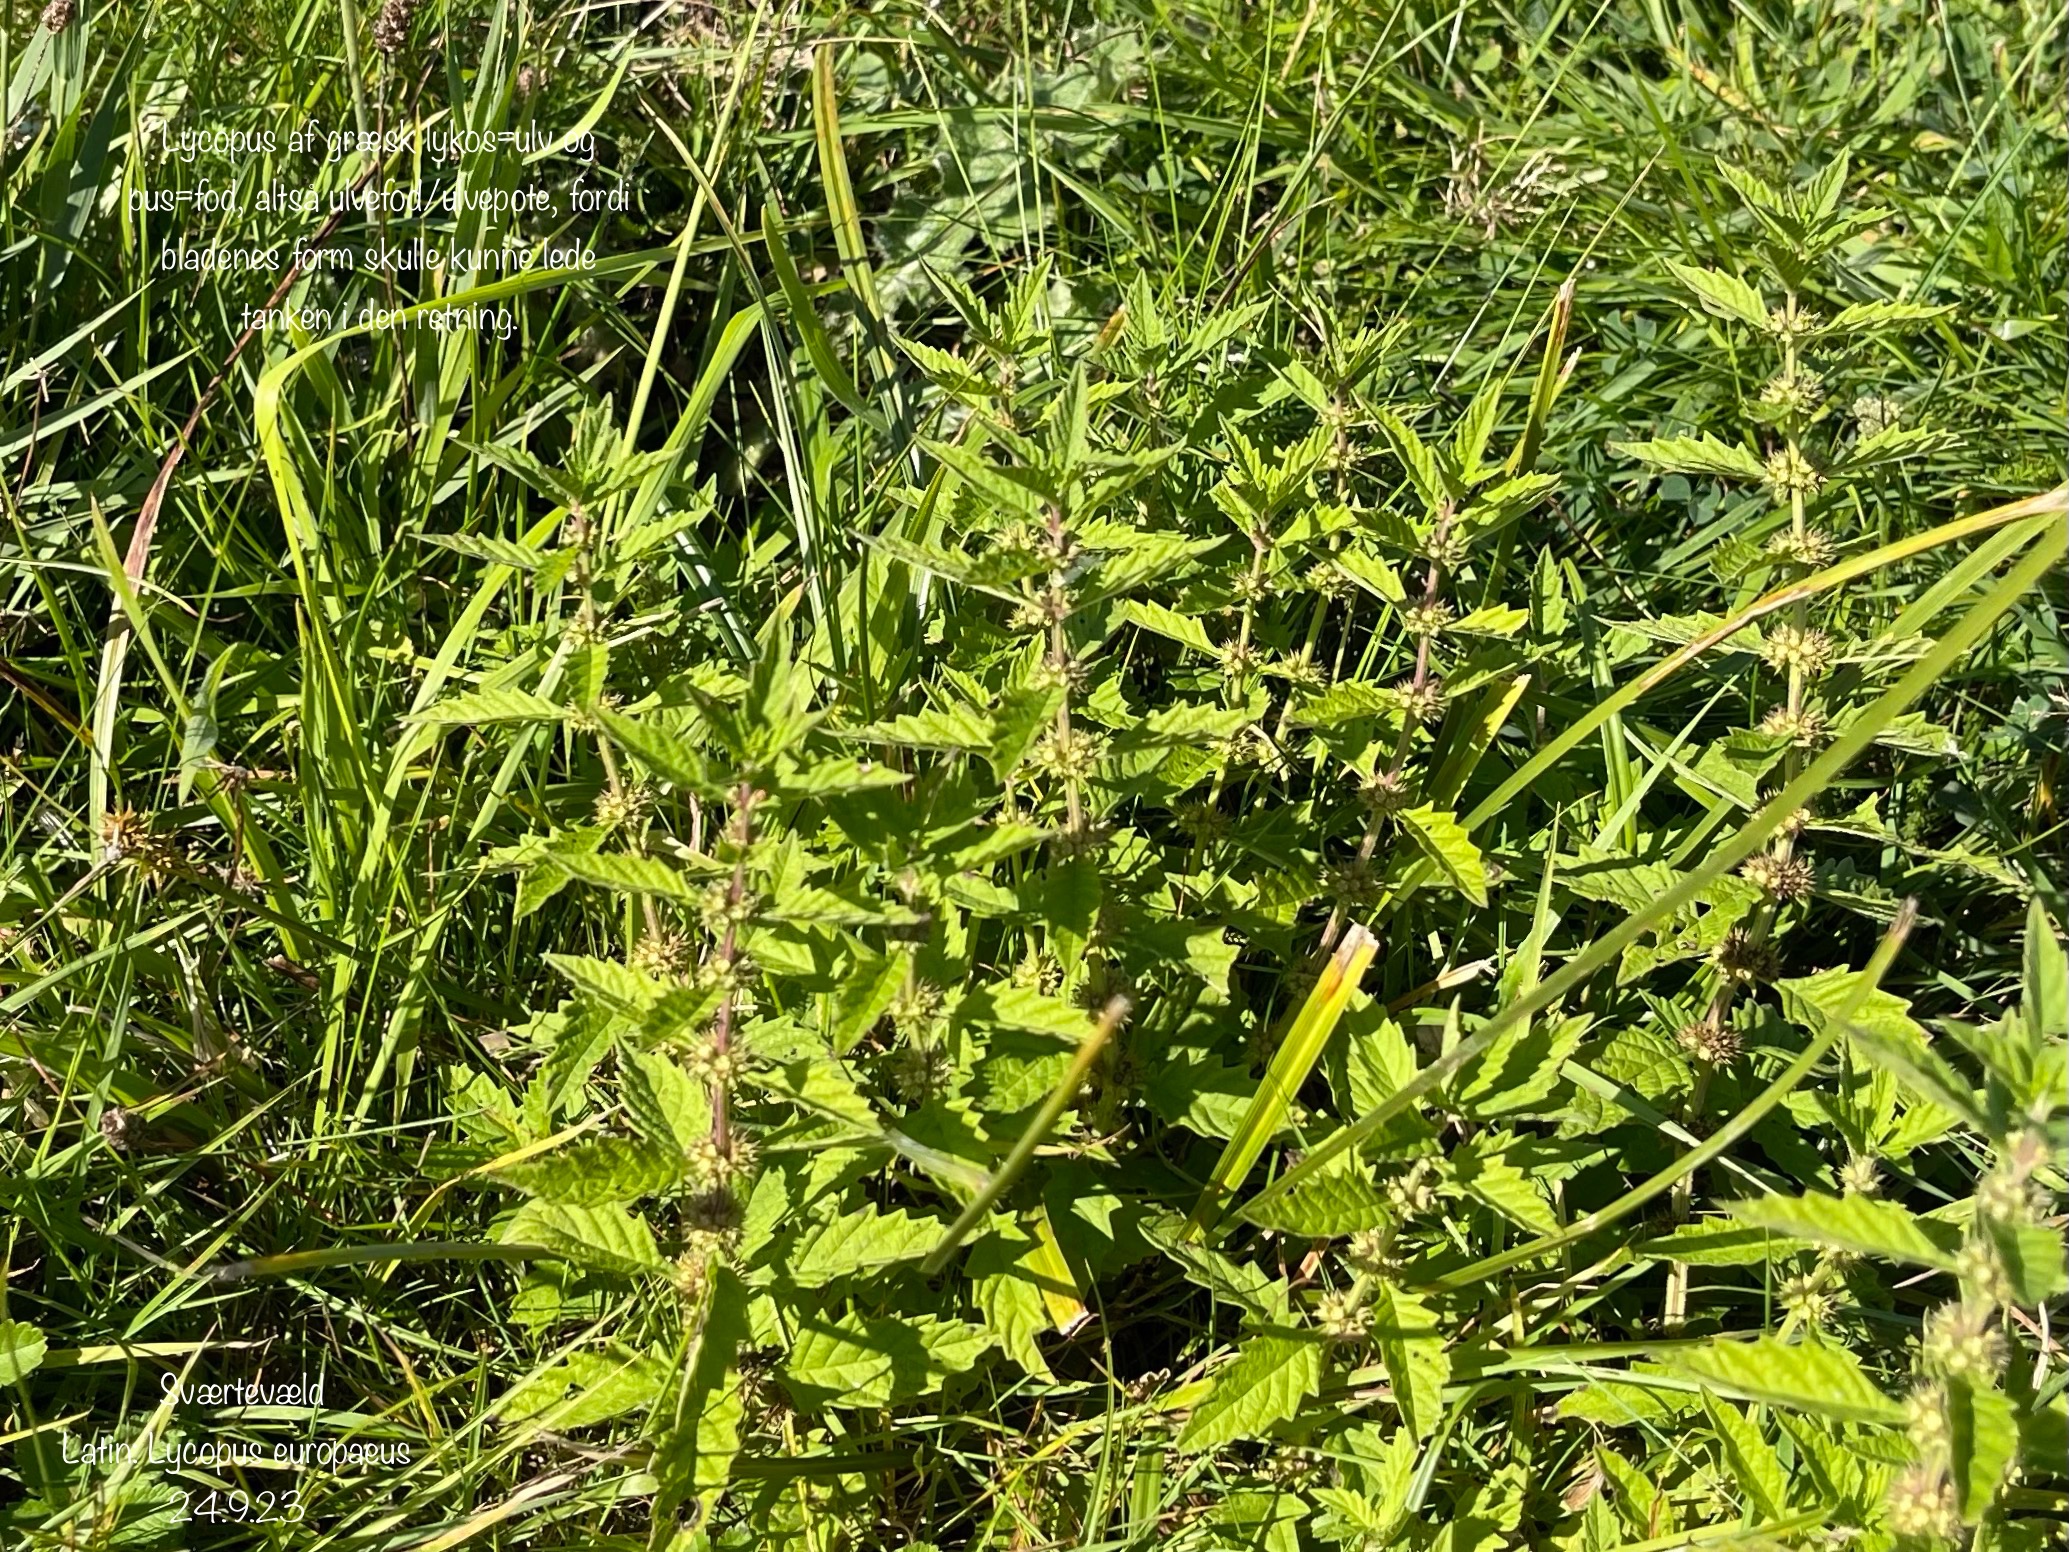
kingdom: Plantae
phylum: Tracheophyta
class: Magnoliopsida
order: Lamiales
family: Lamiaceae
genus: Lycopus
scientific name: Lycopus europaeus
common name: Sværtevæld
